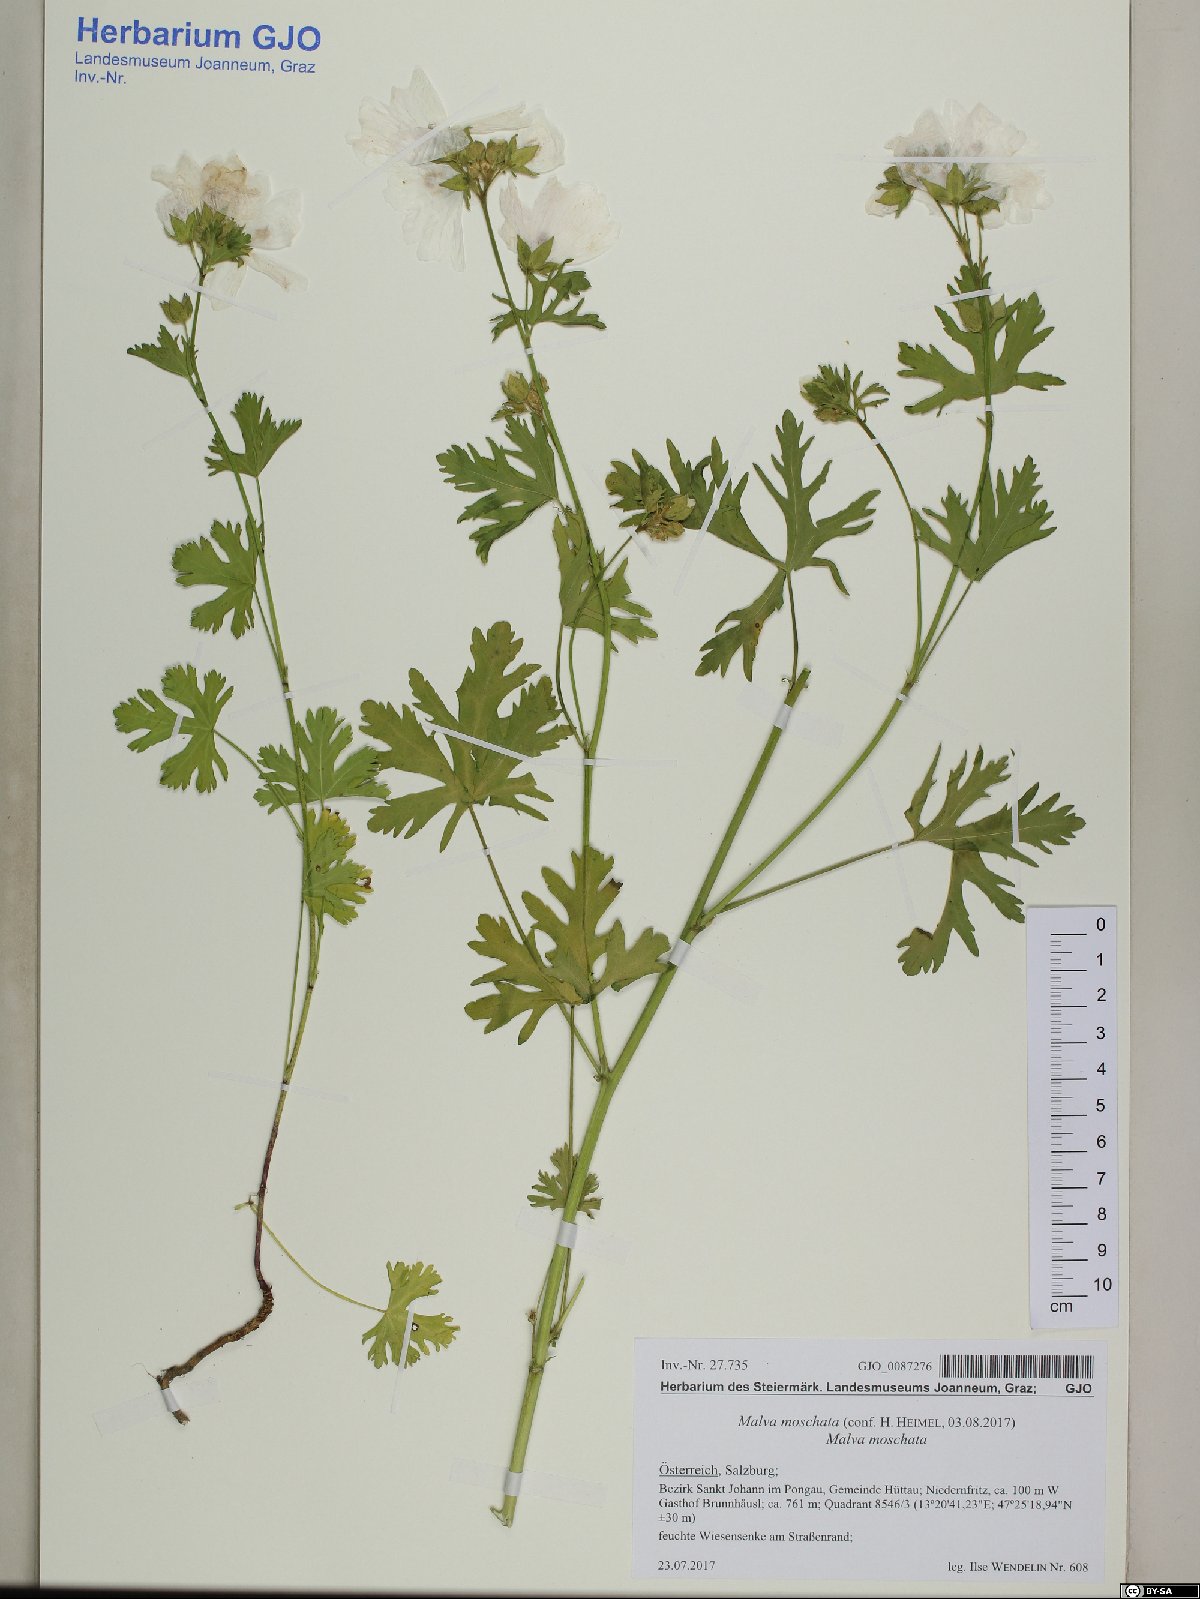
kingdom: Plantae
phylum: Tracheophyta
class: Magnoliopsida
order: Malvales
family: Malvaceae
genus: Malva
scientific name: Malva moschata
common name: Musk mallow
